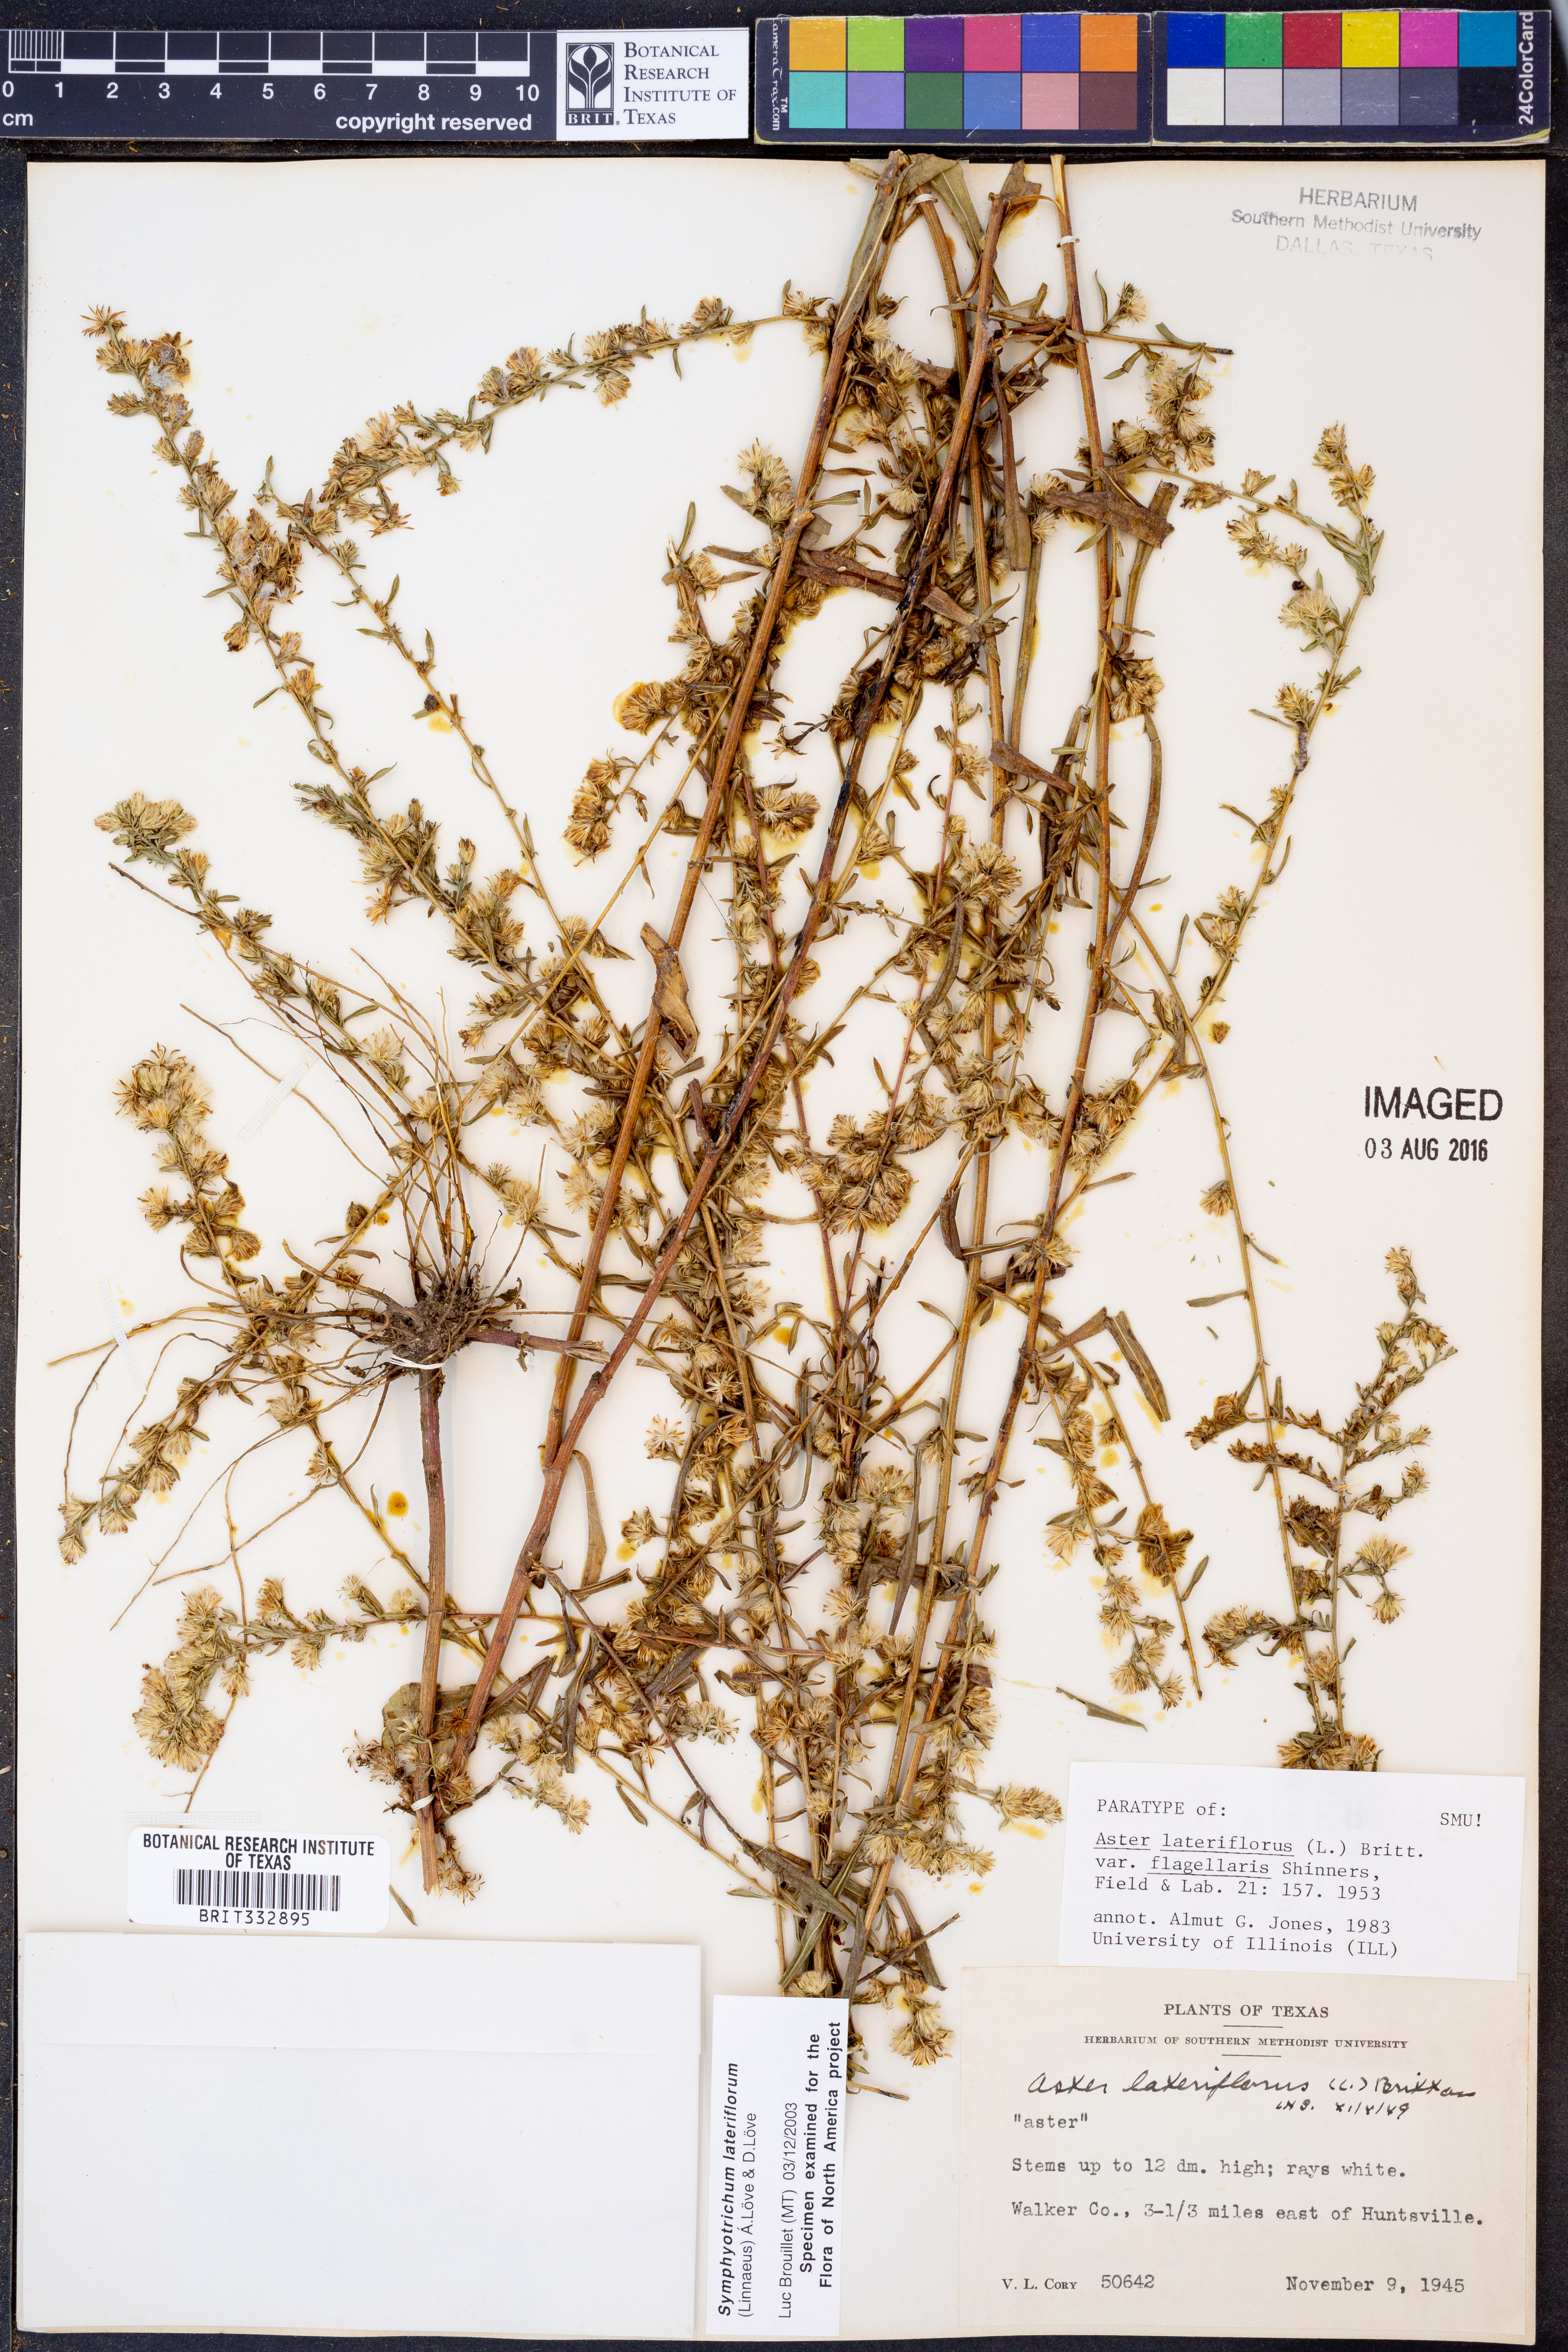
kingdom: Plantae
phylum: Tracheophyta
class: Magnoliopsida
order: Asterales
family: Asteraceae
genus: Symphyotrichum
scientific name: Symphyotrichum lateriflorum
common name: Calico aster
